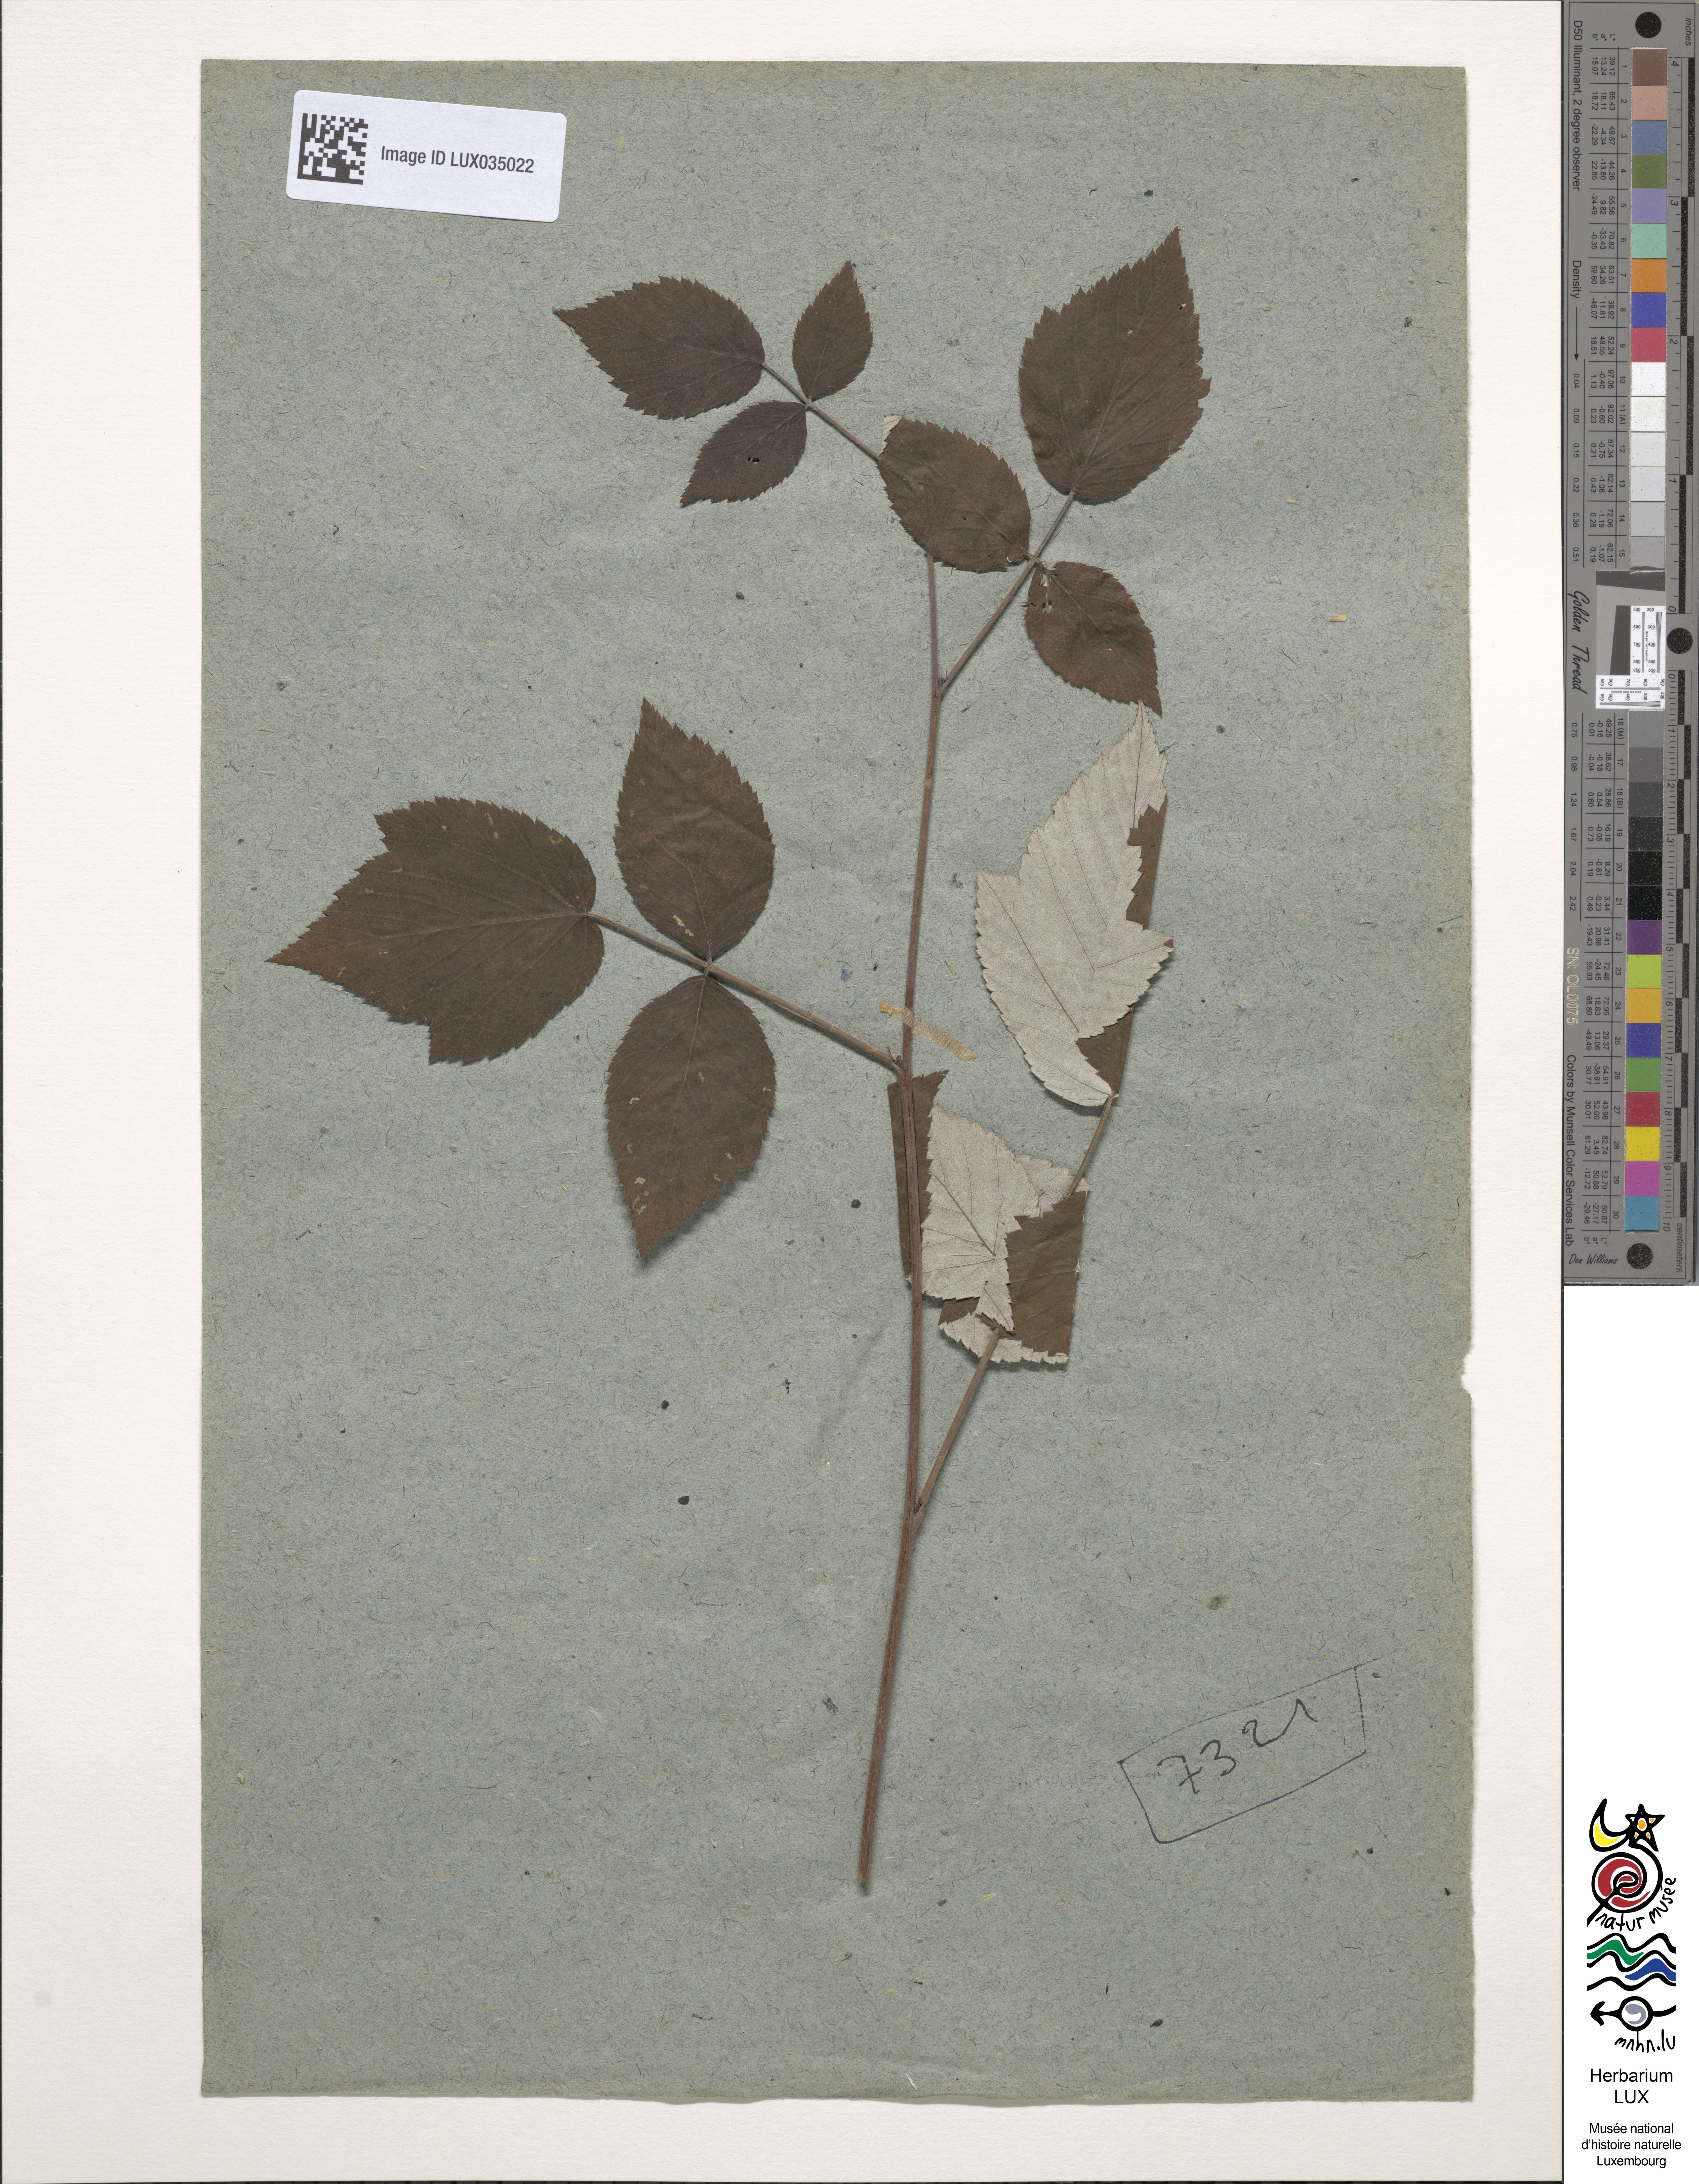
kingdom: Plantae
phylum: Tracheophyta
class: Magnoliopsida
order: Rosales
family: Rosaceae
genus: Rubus
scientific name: Rubus idaeus
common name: Raspberry
